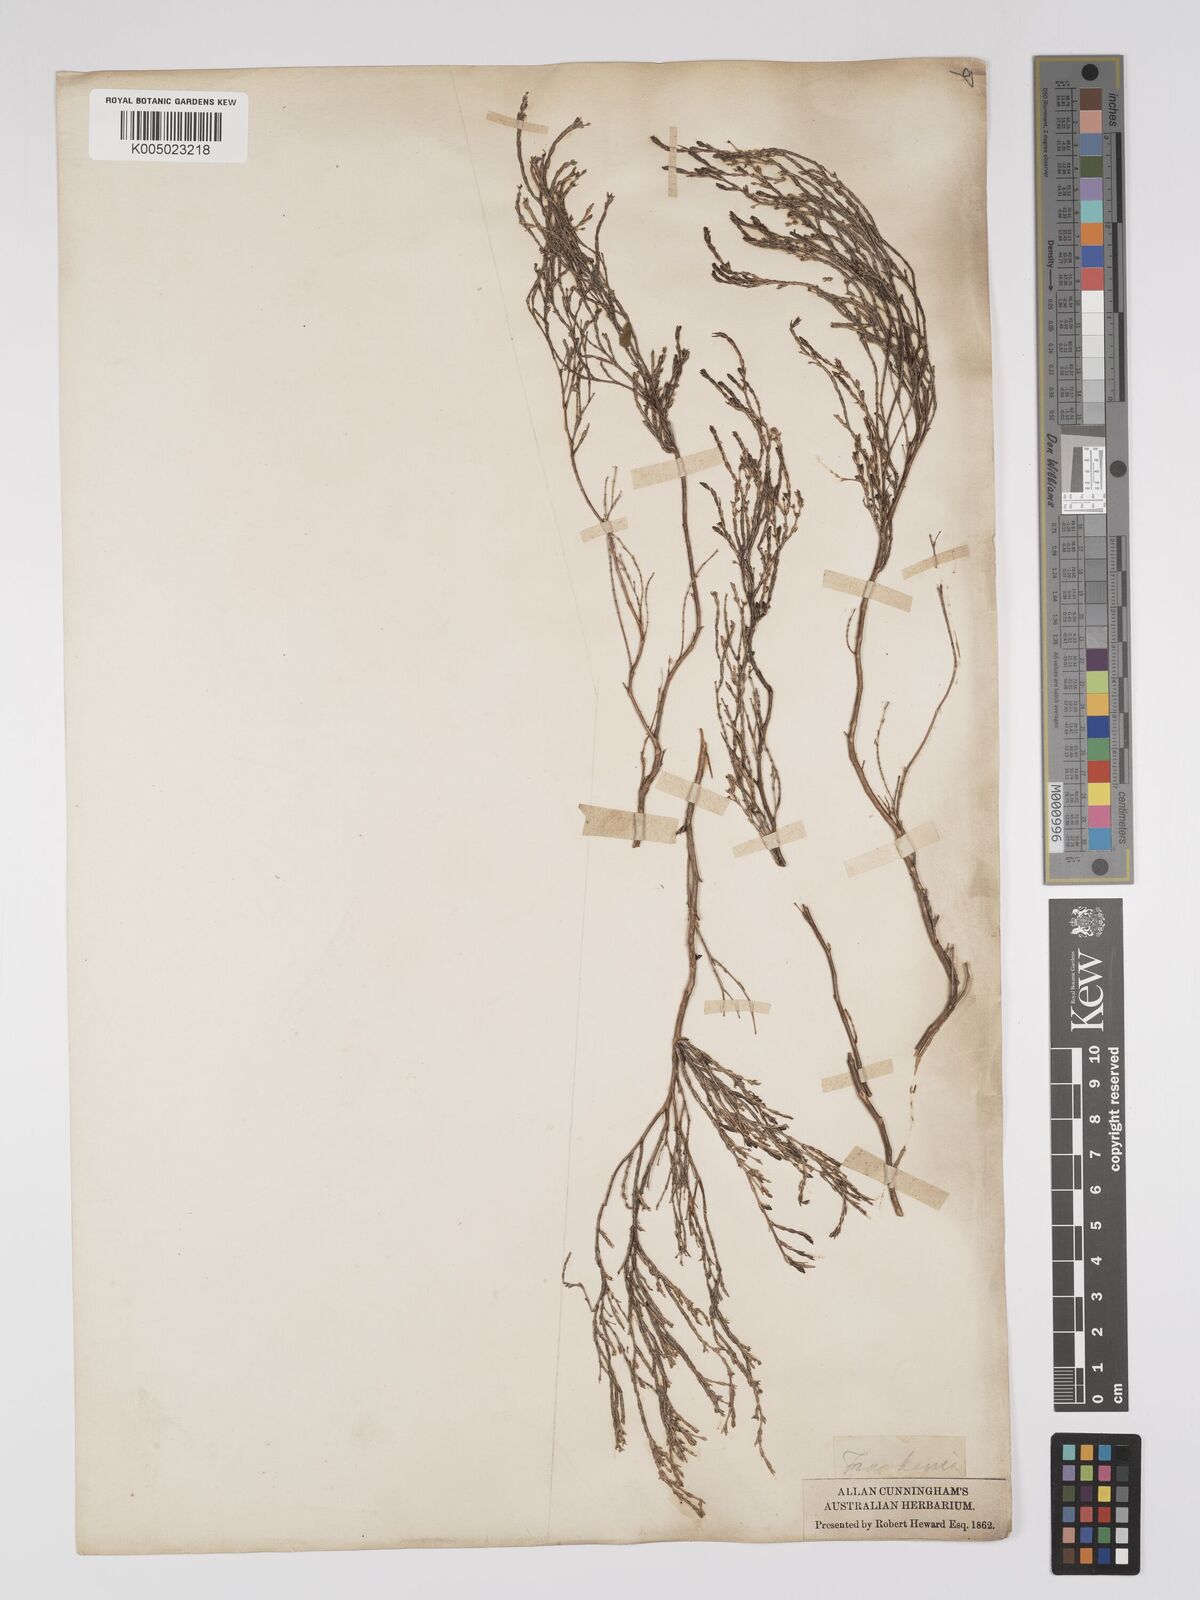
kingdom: Plantae
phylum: Tracheophyta
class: Magnoliopsida
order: Caryophyllales
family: Frankeniaceae
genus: Frankenia
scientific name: Frankenia
